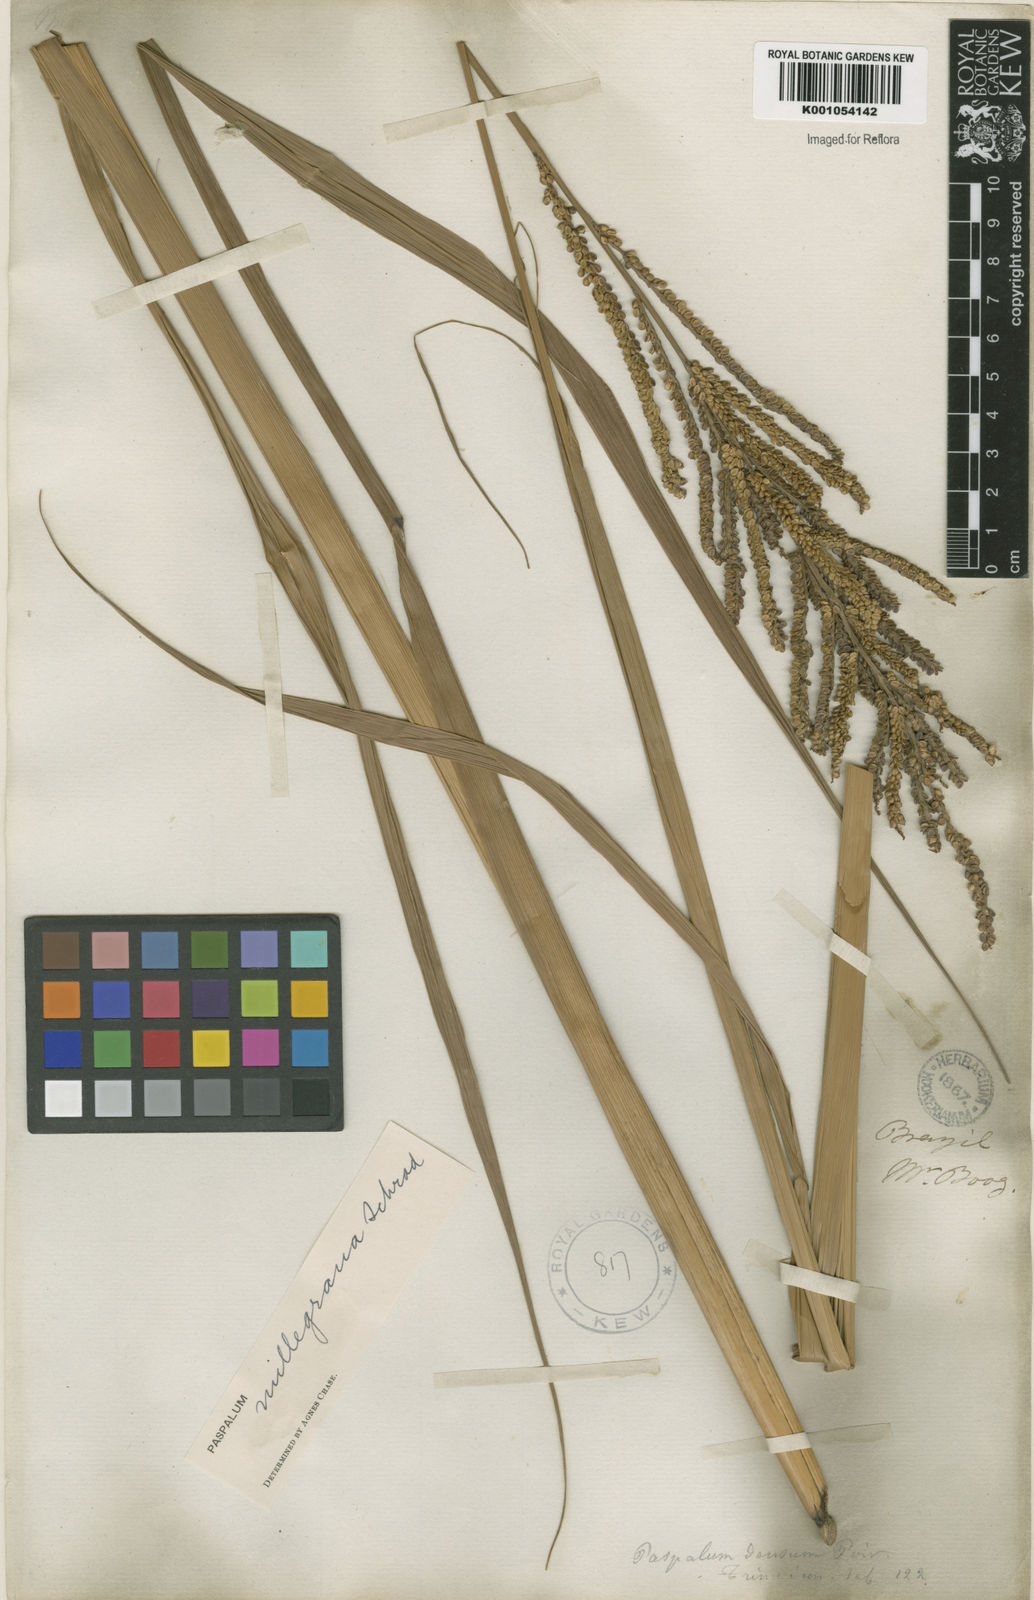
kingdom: Plantae
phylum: Tracheophyta
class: Liliopsida
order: Poales
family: Poaceae
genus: Paspalum
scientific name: Paspalum
